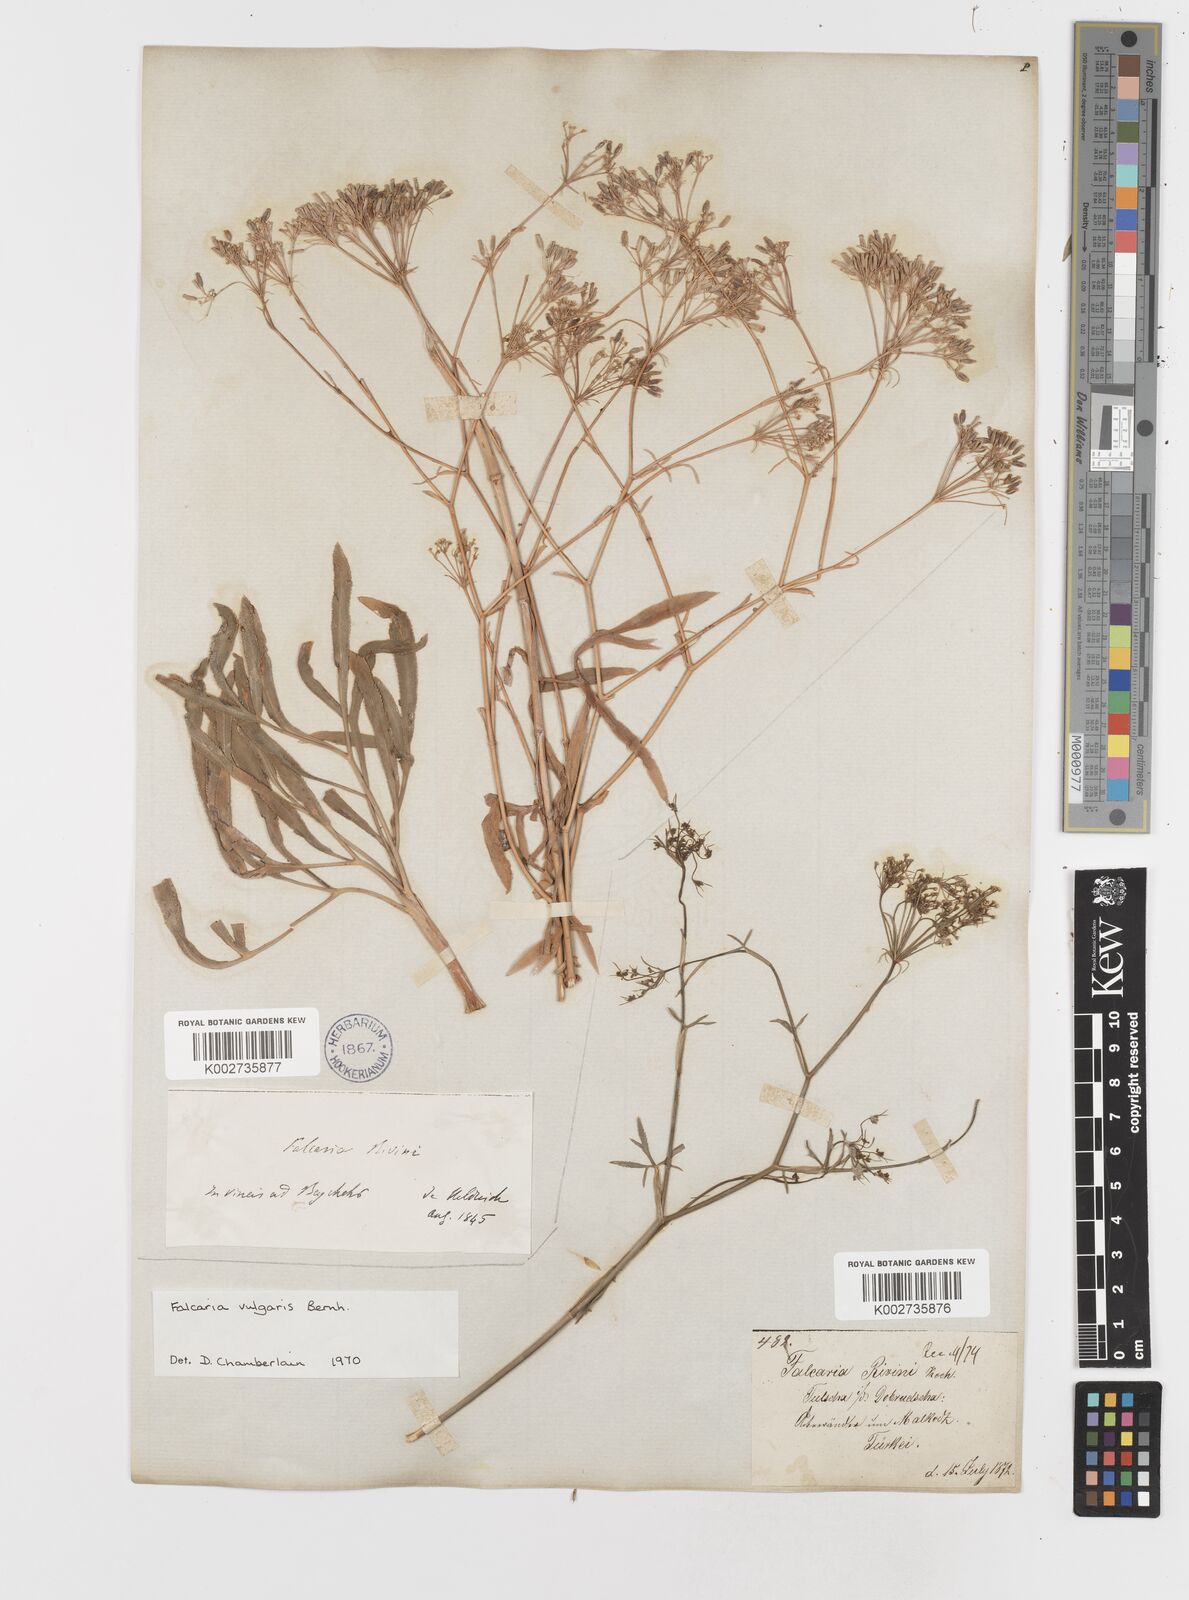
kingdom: Plantae
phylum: Tracheophyta
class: Magnoliopsida
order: Apiales
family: Apiaceae
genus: Falcaria
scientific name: Falcaria vulgaris
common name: Longleaf
